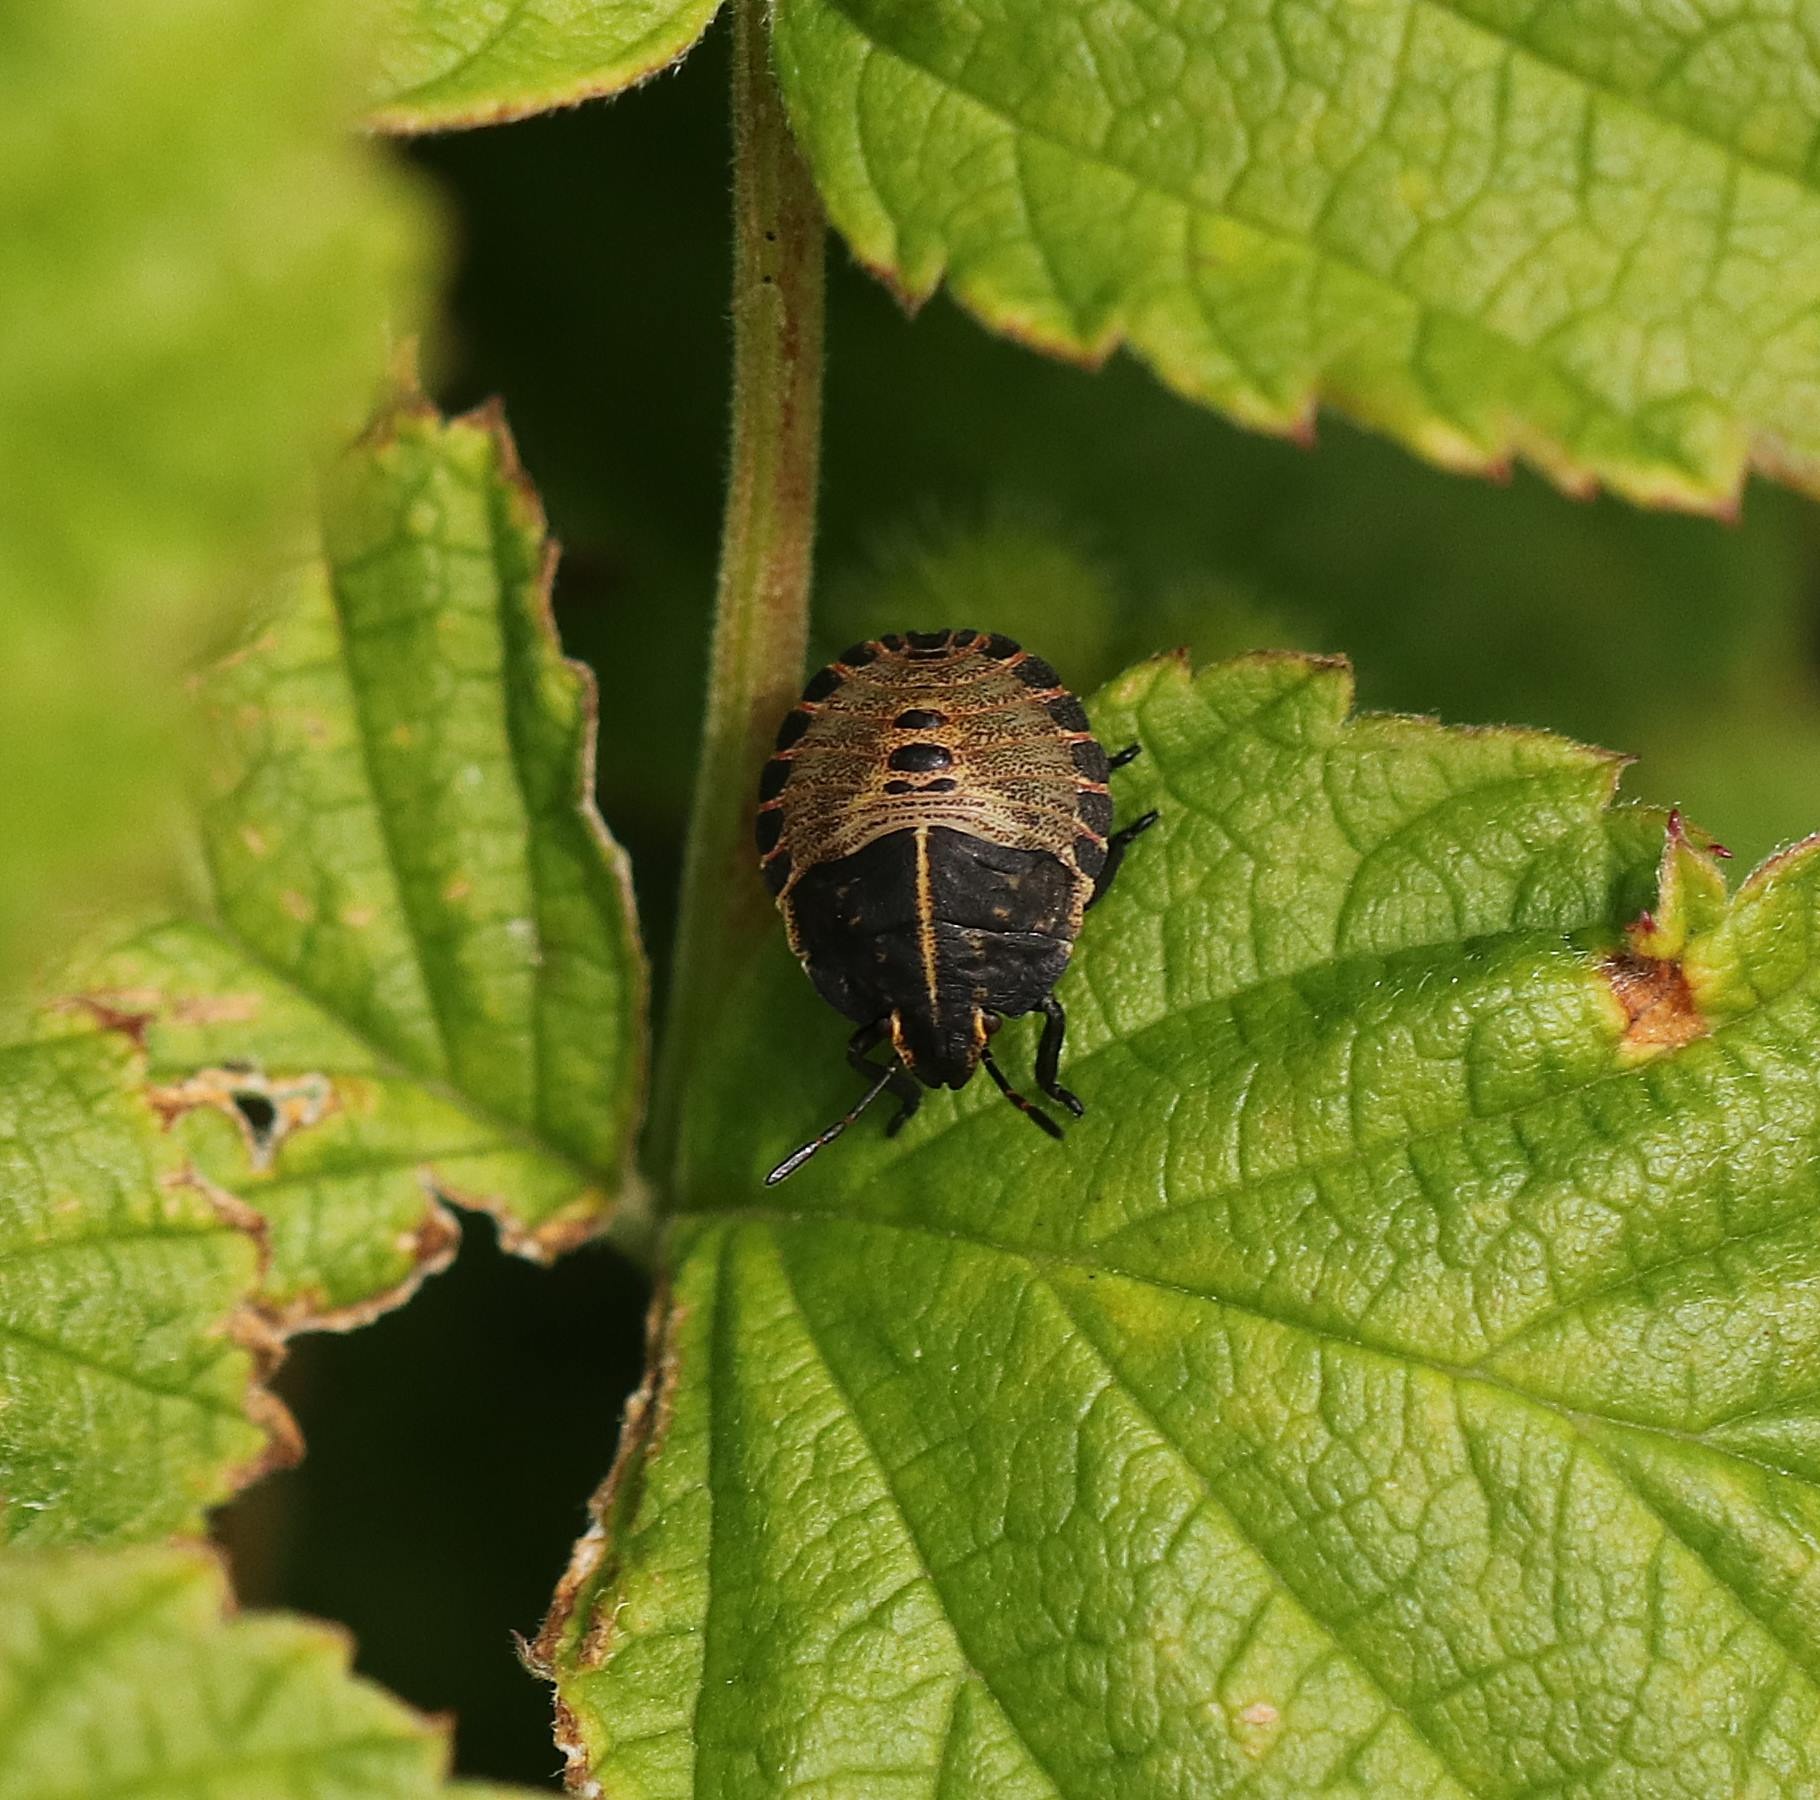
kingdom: Animalia
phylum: Arthropoda
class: Insecta
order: Hemiptera
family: Pentatomidae
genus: Graphosoma
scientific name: Graphosoma italicum
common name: Stribetæge
